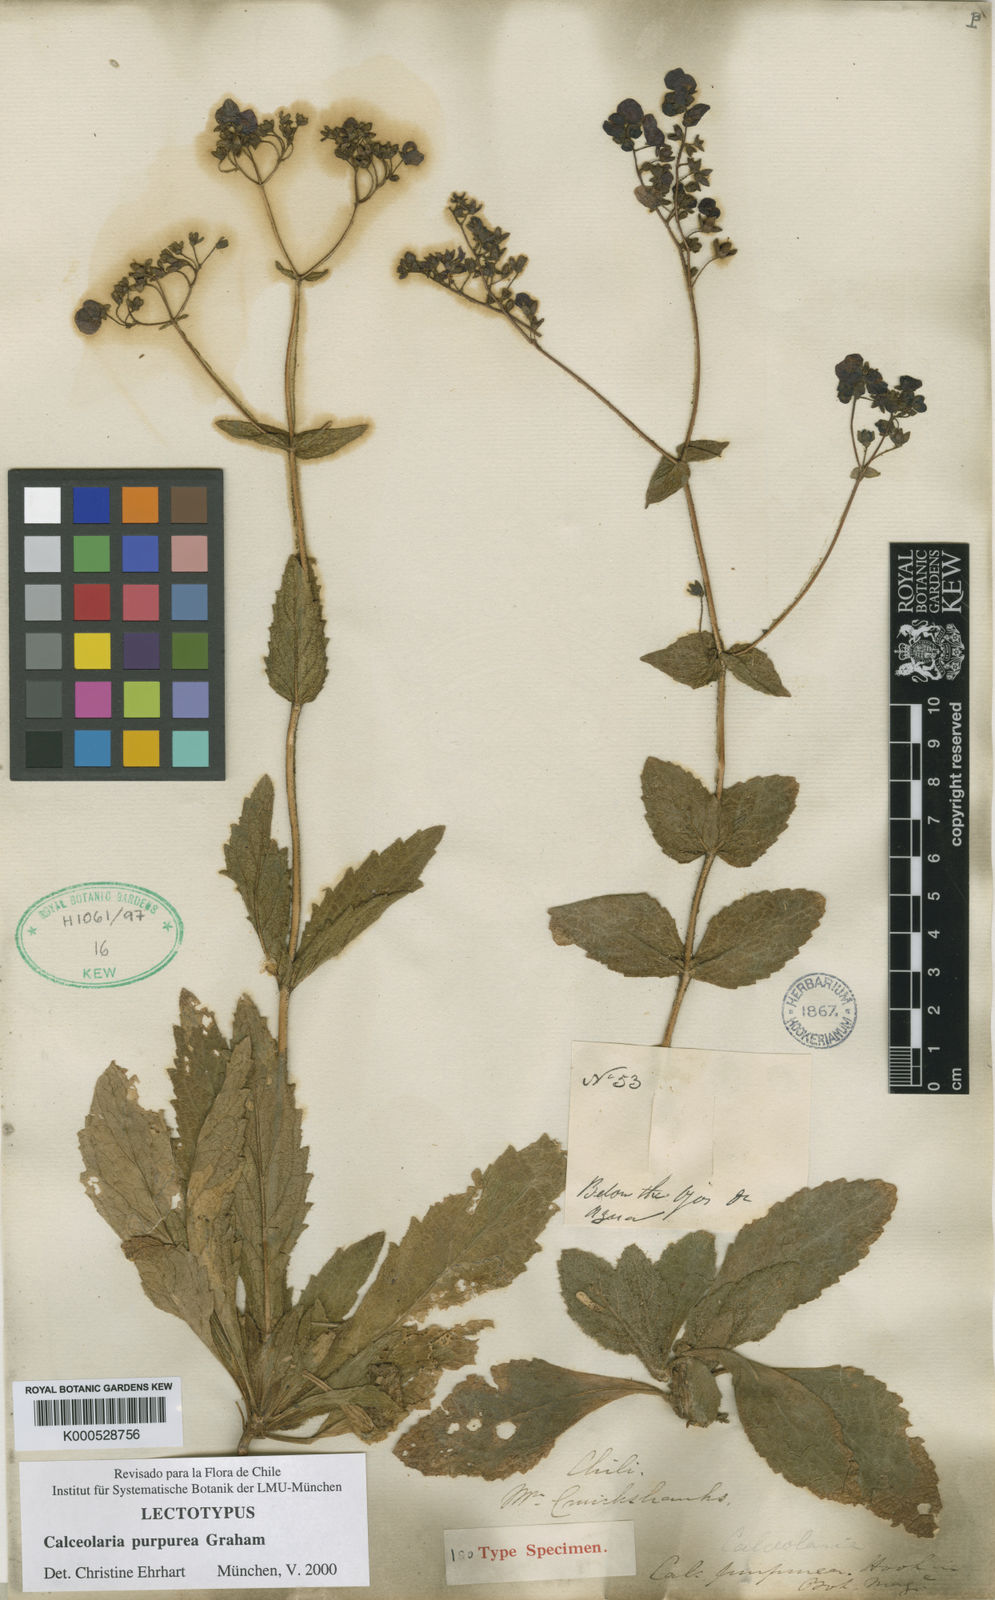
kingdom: Plantae
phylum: Tracheophyta
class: Magnoliopsida
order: Lamiales
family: Calceolariaceae
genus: Calceolaria
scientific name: Calceolaria purpurea
